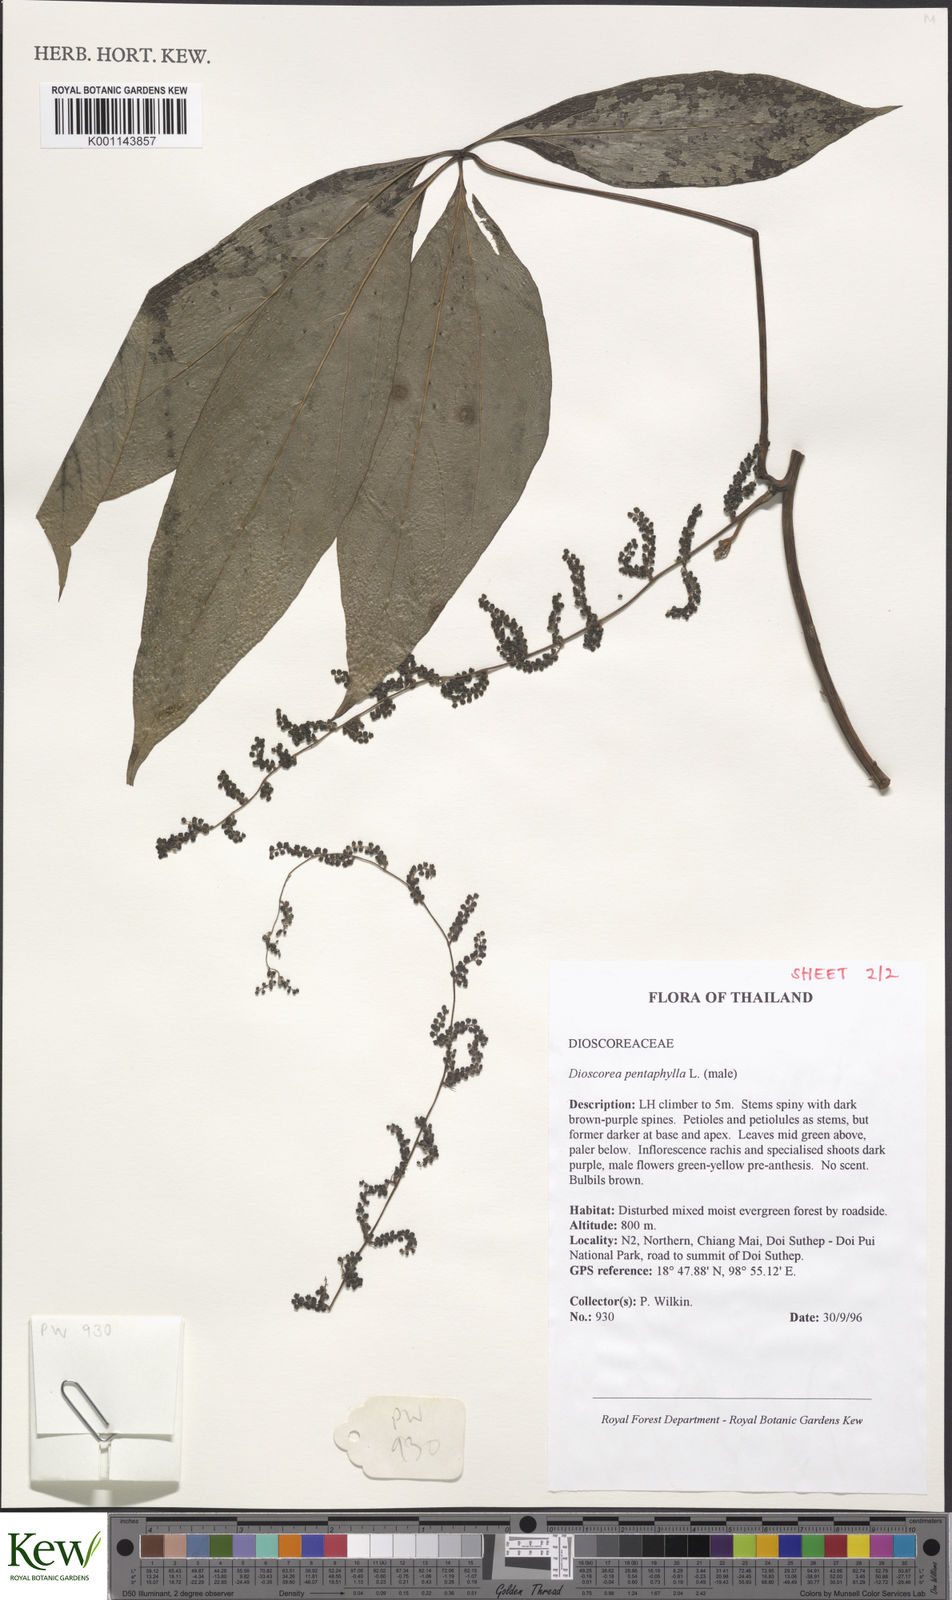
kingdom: Plantae
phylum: Tracheophyta
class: Liliopsida
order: Dioscoreales
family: Dioscoreaceae
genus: Dioscorea
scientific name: Dioscorea pentaphylla
